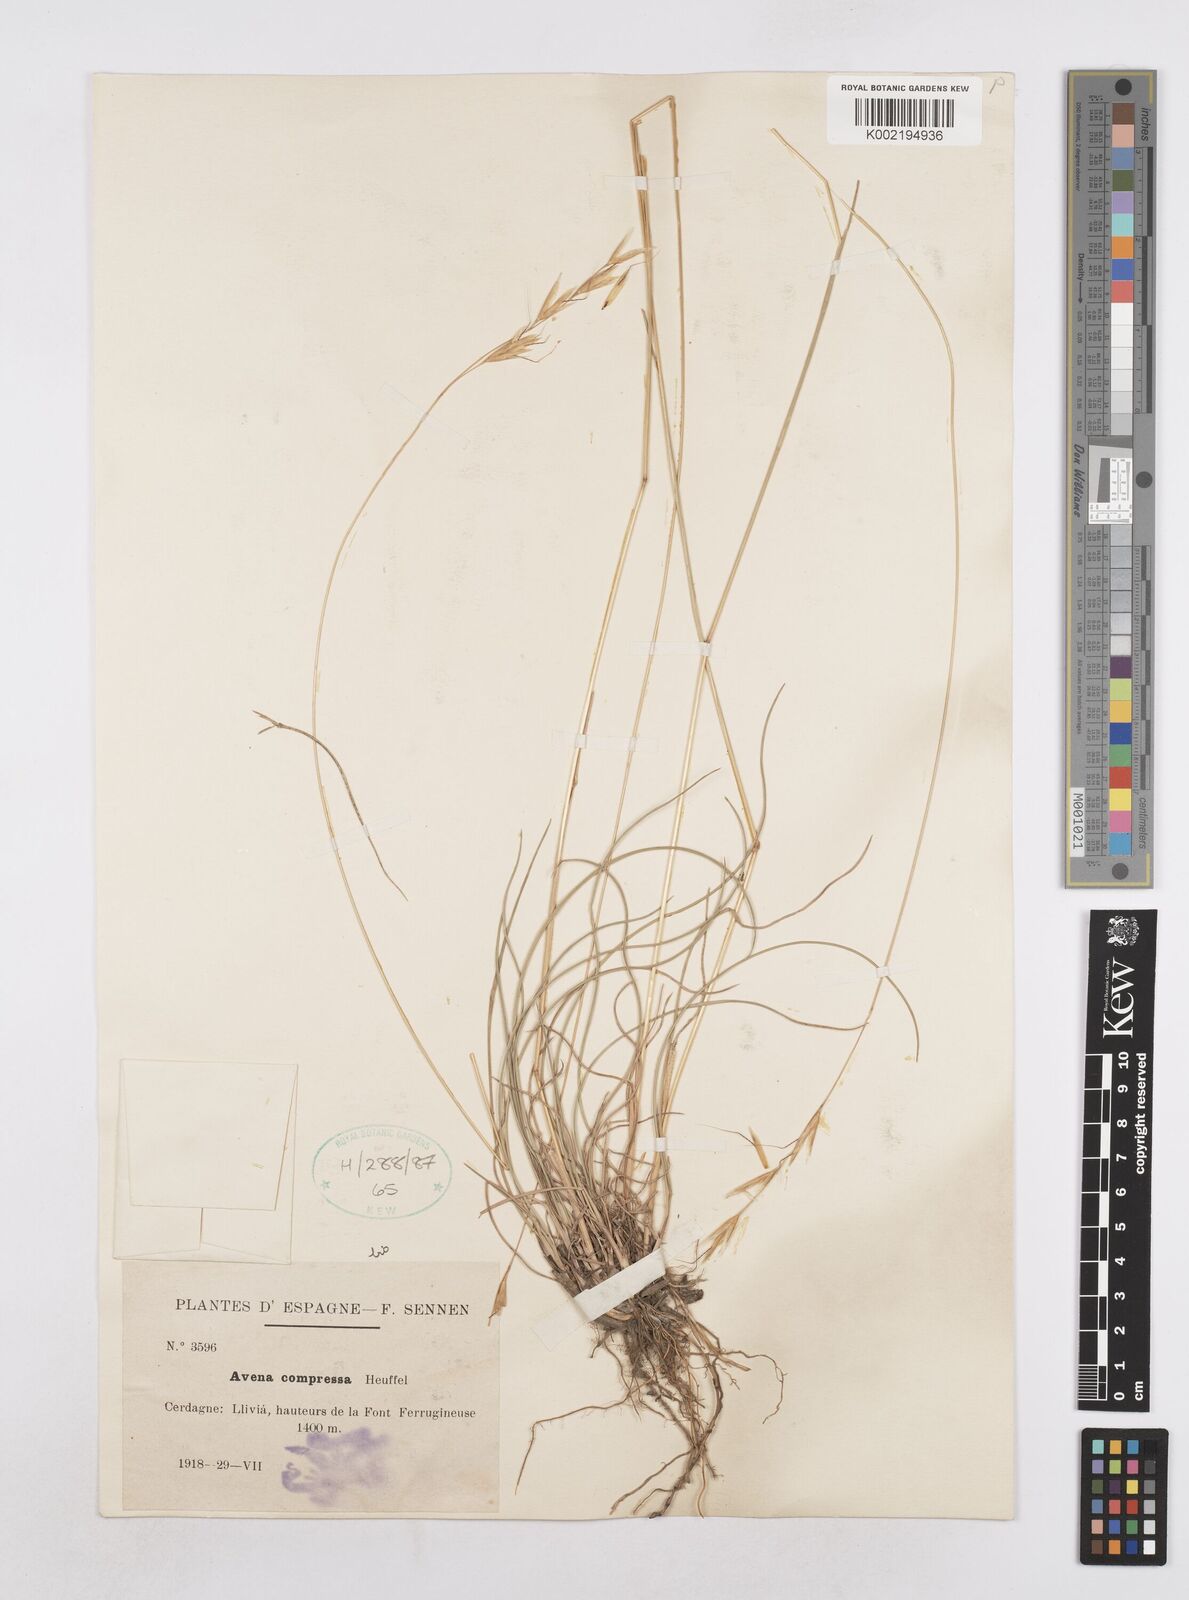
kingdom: Plantae
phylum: Tracheophyta
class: Liliopsida
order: Poales
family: Poaceae
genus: Helictochloa
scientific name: Helictochloa compressa
